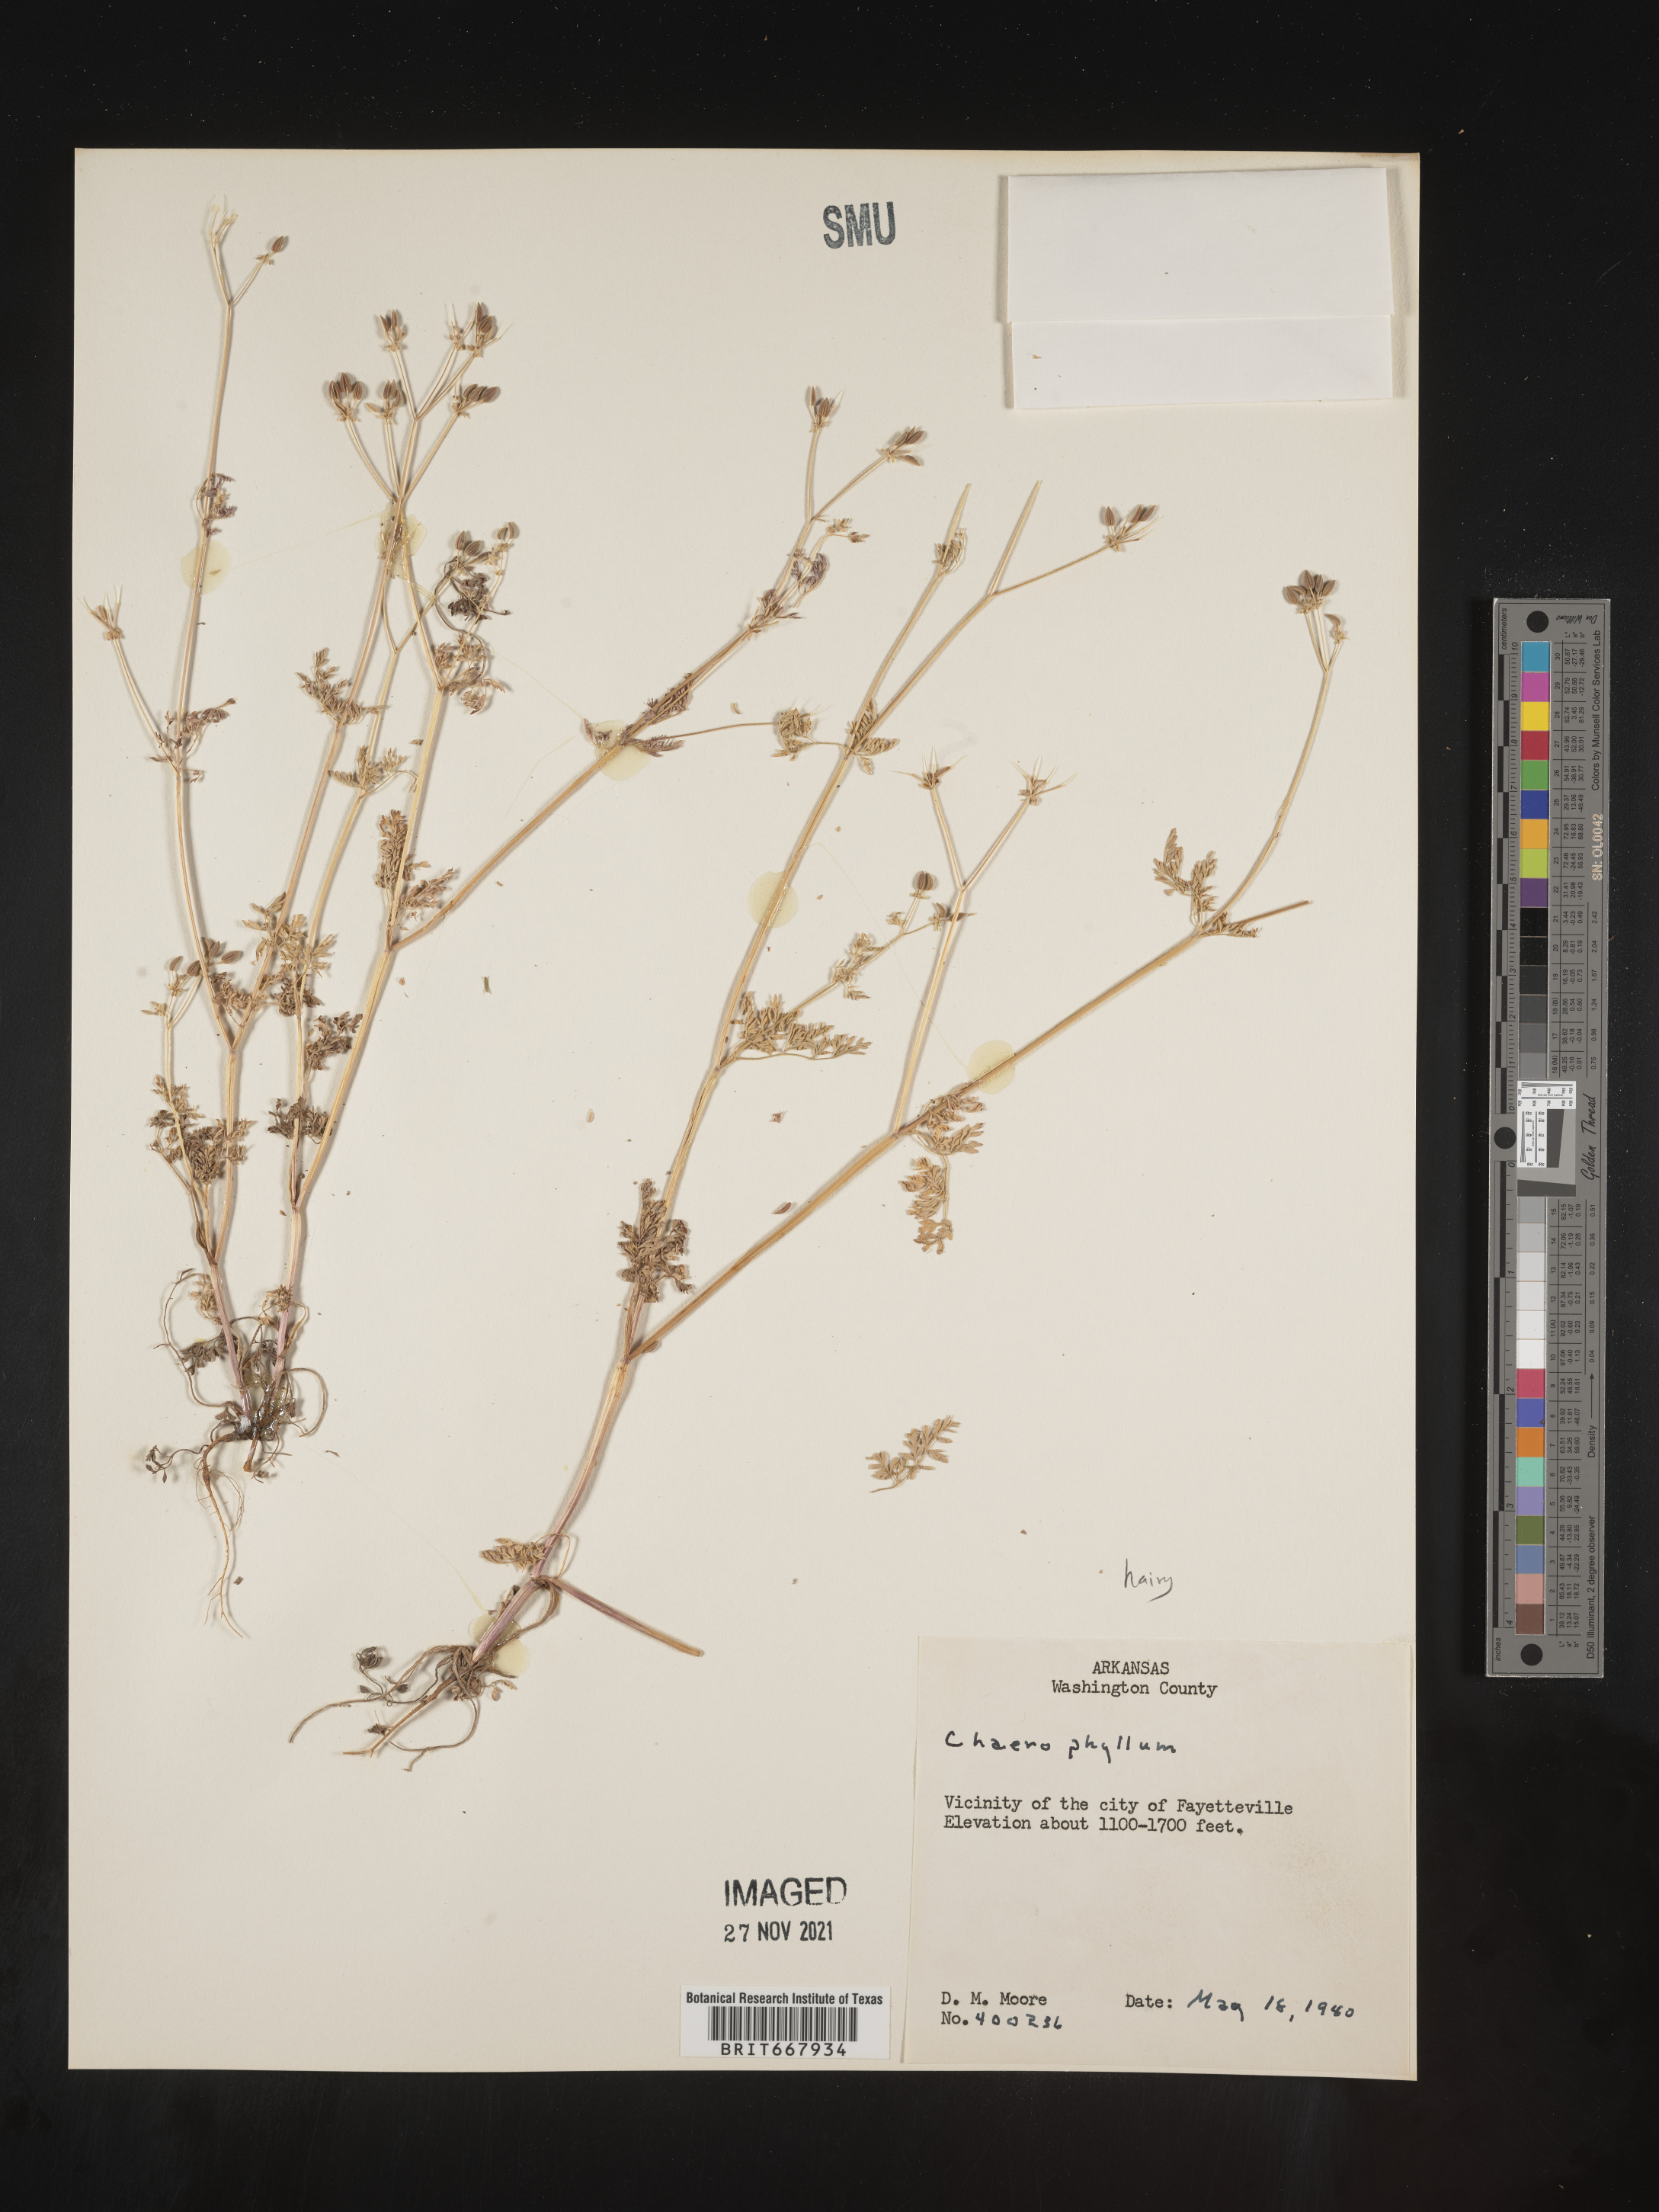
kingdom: Plantae
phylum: Tracheophyta
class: Magnoliopsida
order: Apiales
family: Apiaceae
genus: Chaerophyllum
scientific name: Chaerophyllum tainturieri
